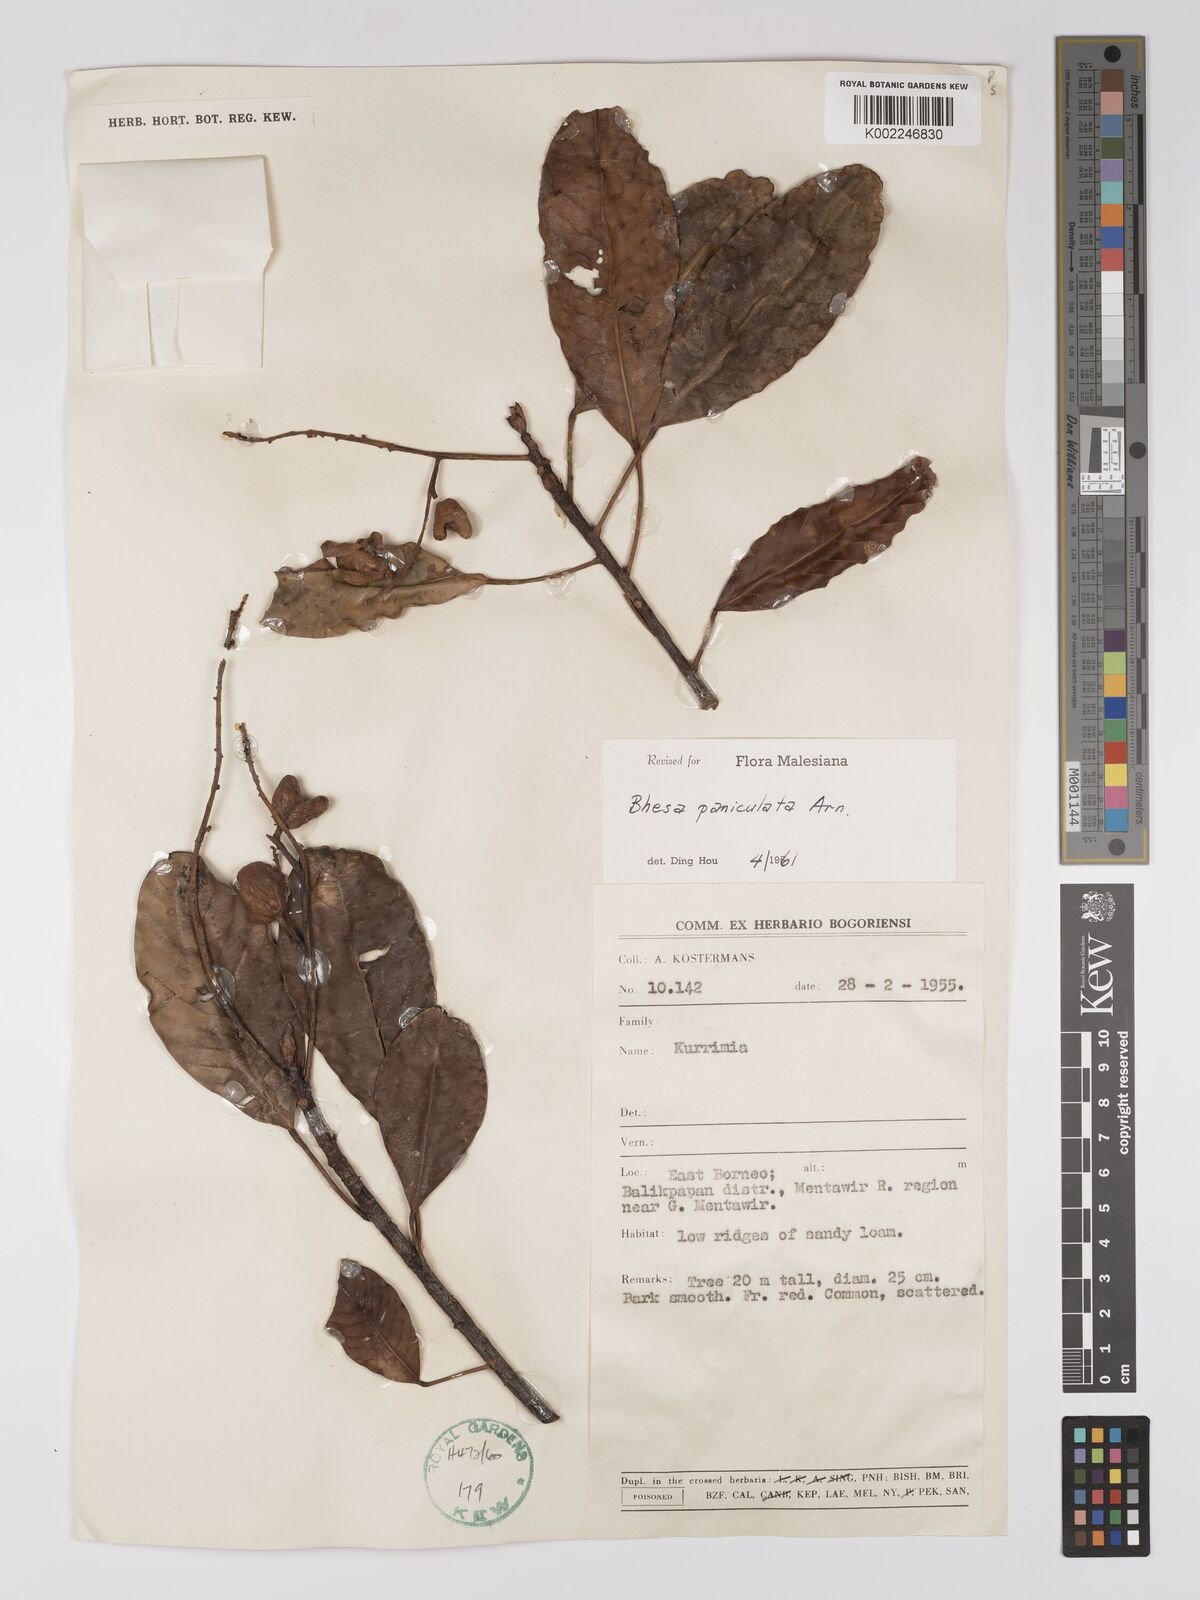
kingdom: Plantae
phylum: Tracheophyta
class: Magnoliopsida
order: Malpighiales
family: Centroplacaceae
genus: Bhesa
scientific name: Bhesa paniculata
